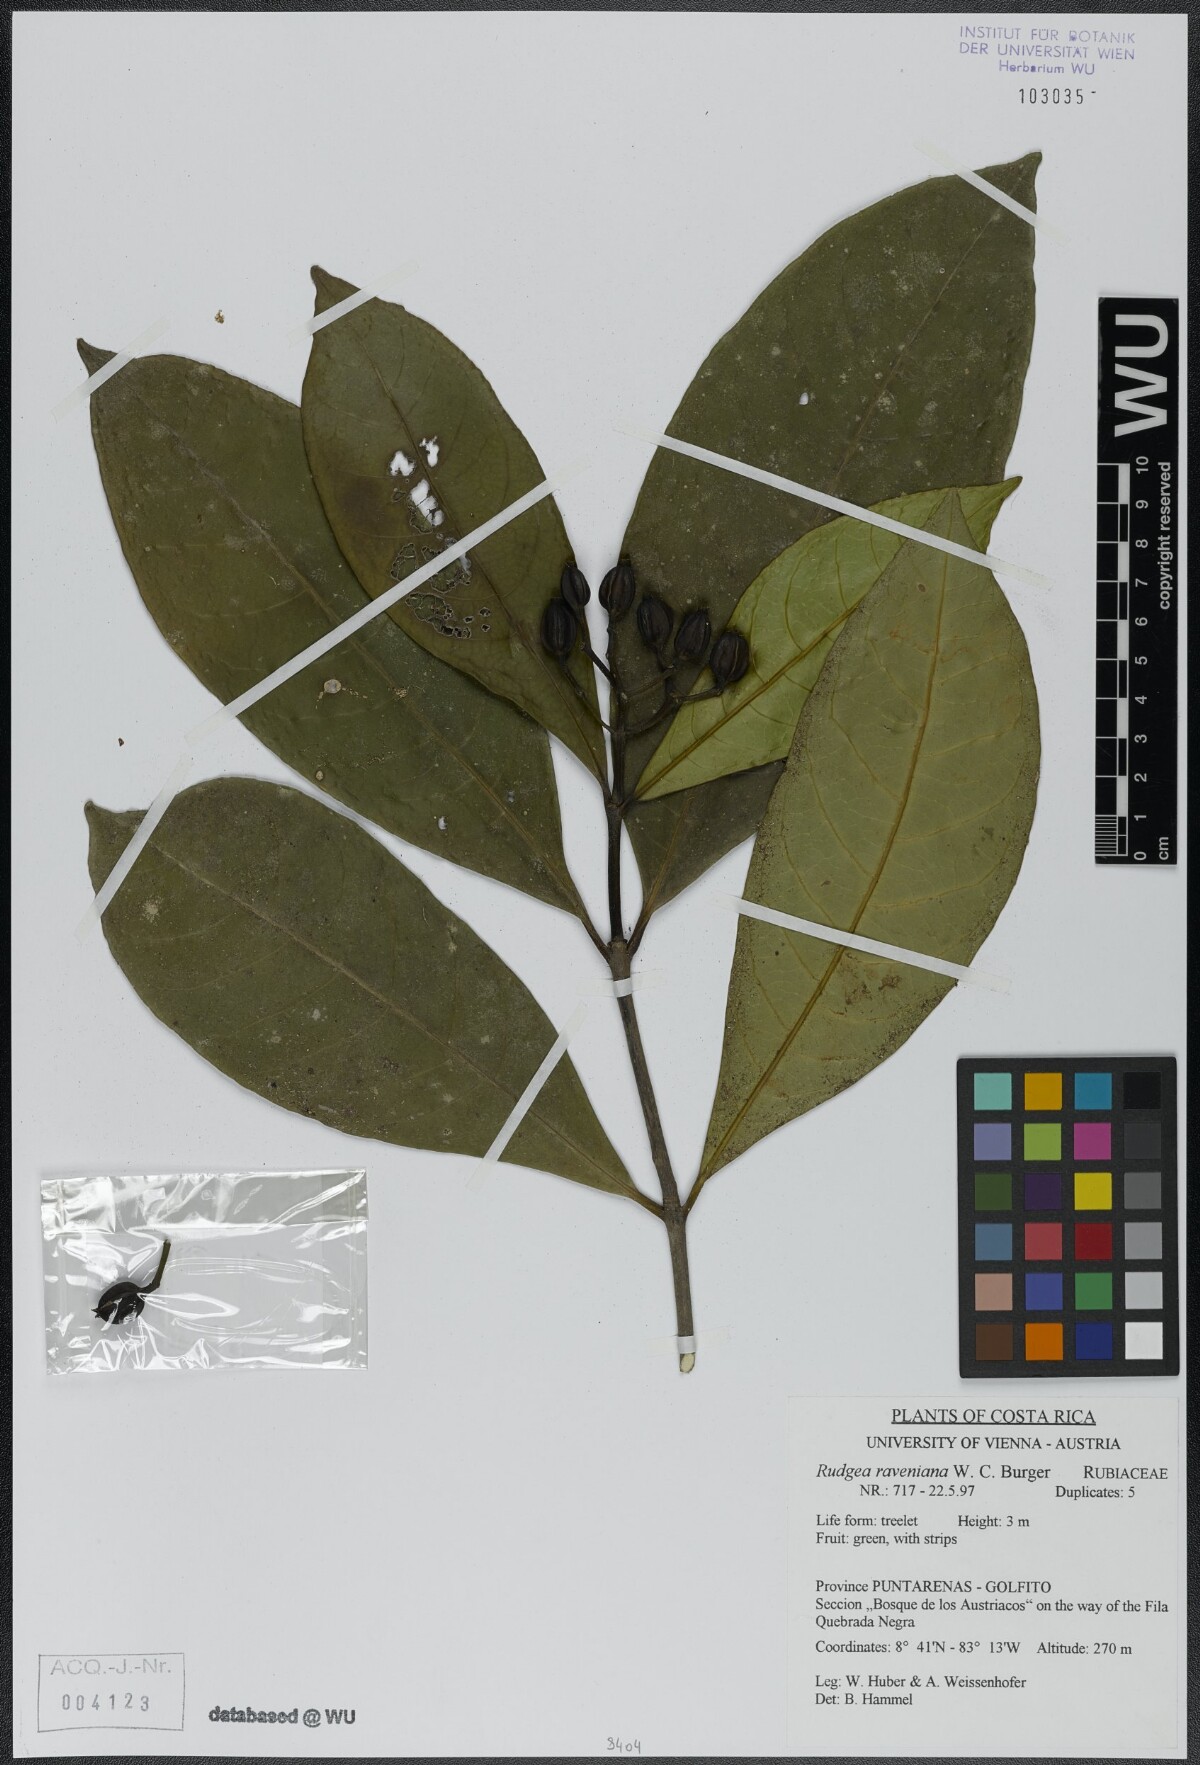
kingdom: Plantae
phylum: Tracheophyta
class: Magnoliopsida
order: Gentianales
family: Rubiaceae
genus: Rudgea
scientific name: Rudgea raveniana
